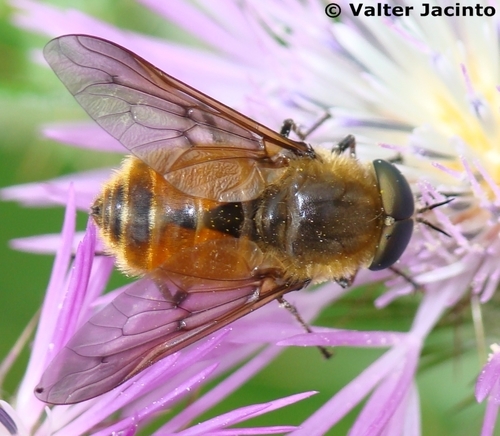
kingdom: Animalia
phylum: Arthropoda
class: Insecta
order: Diptera
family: Tabanidae
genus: Pangonius
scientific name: Pangonius
